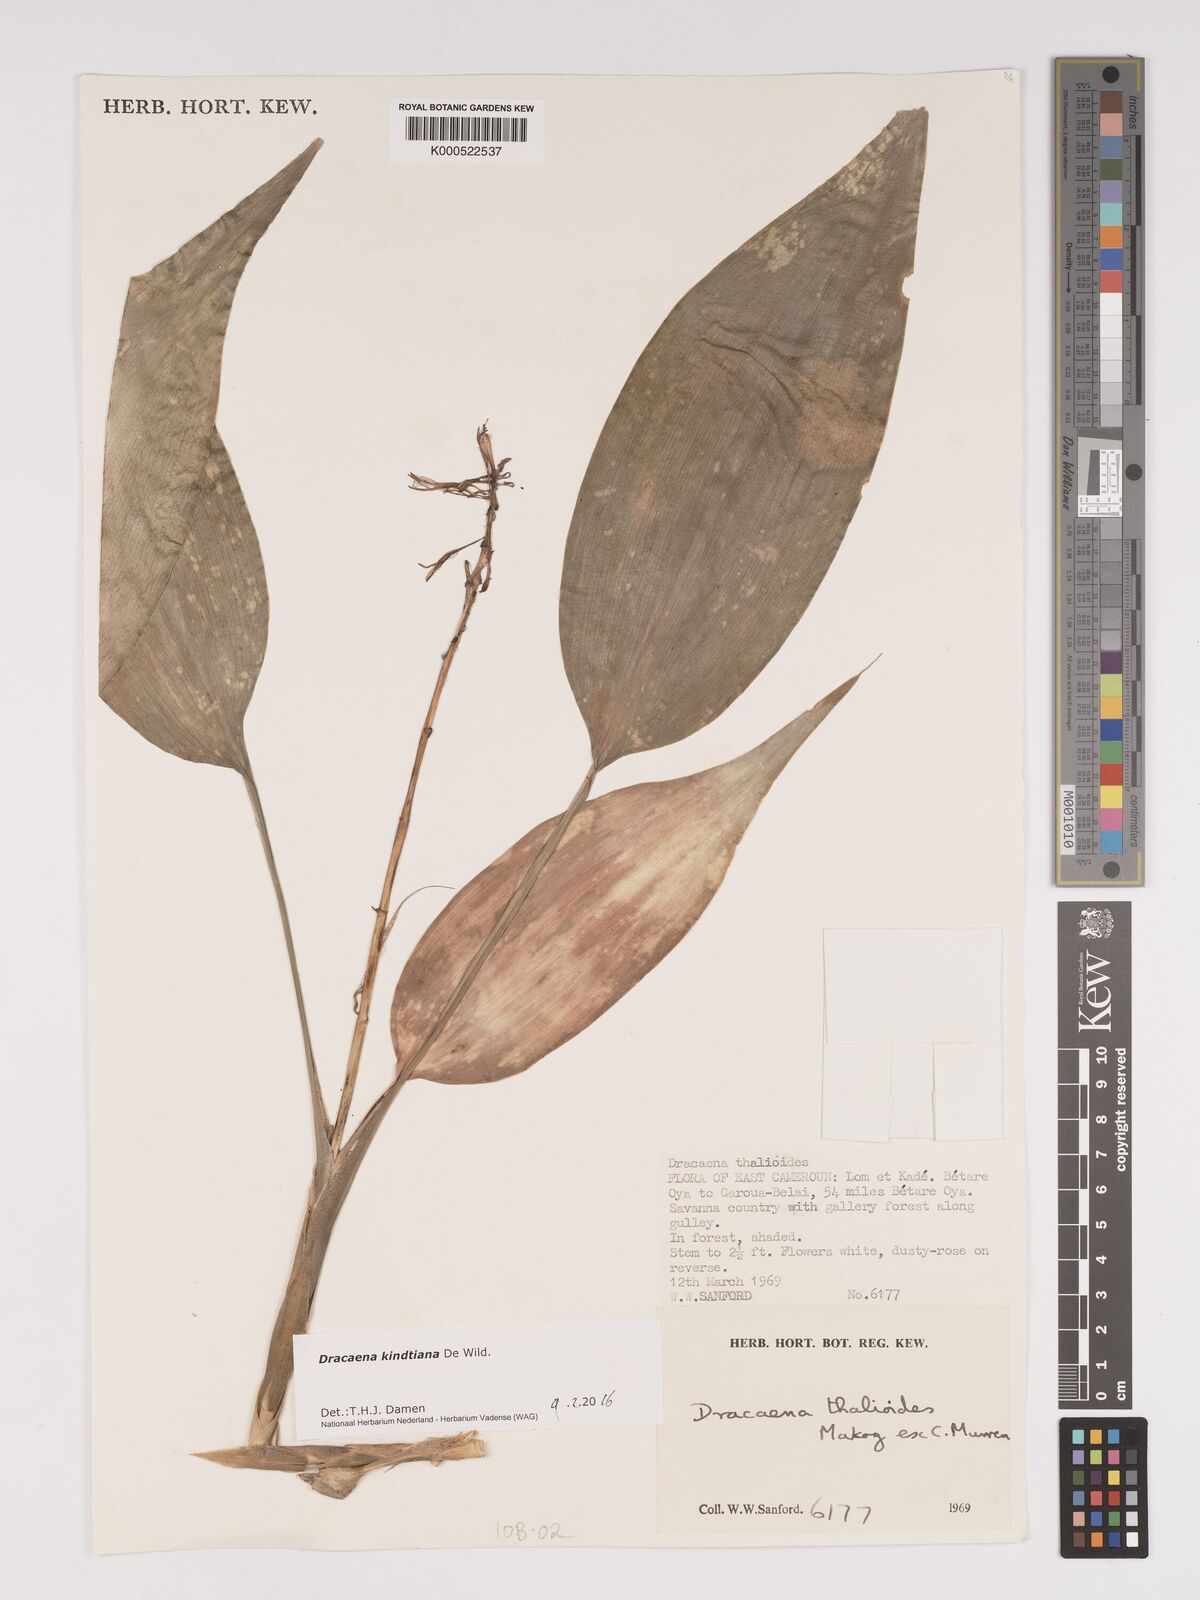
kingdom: Plantae
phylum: Tracheophyta
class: Liliopsida
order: Asparagales
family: Asparagaceae
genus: Dracaena
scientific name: Dracaena kindtiana
